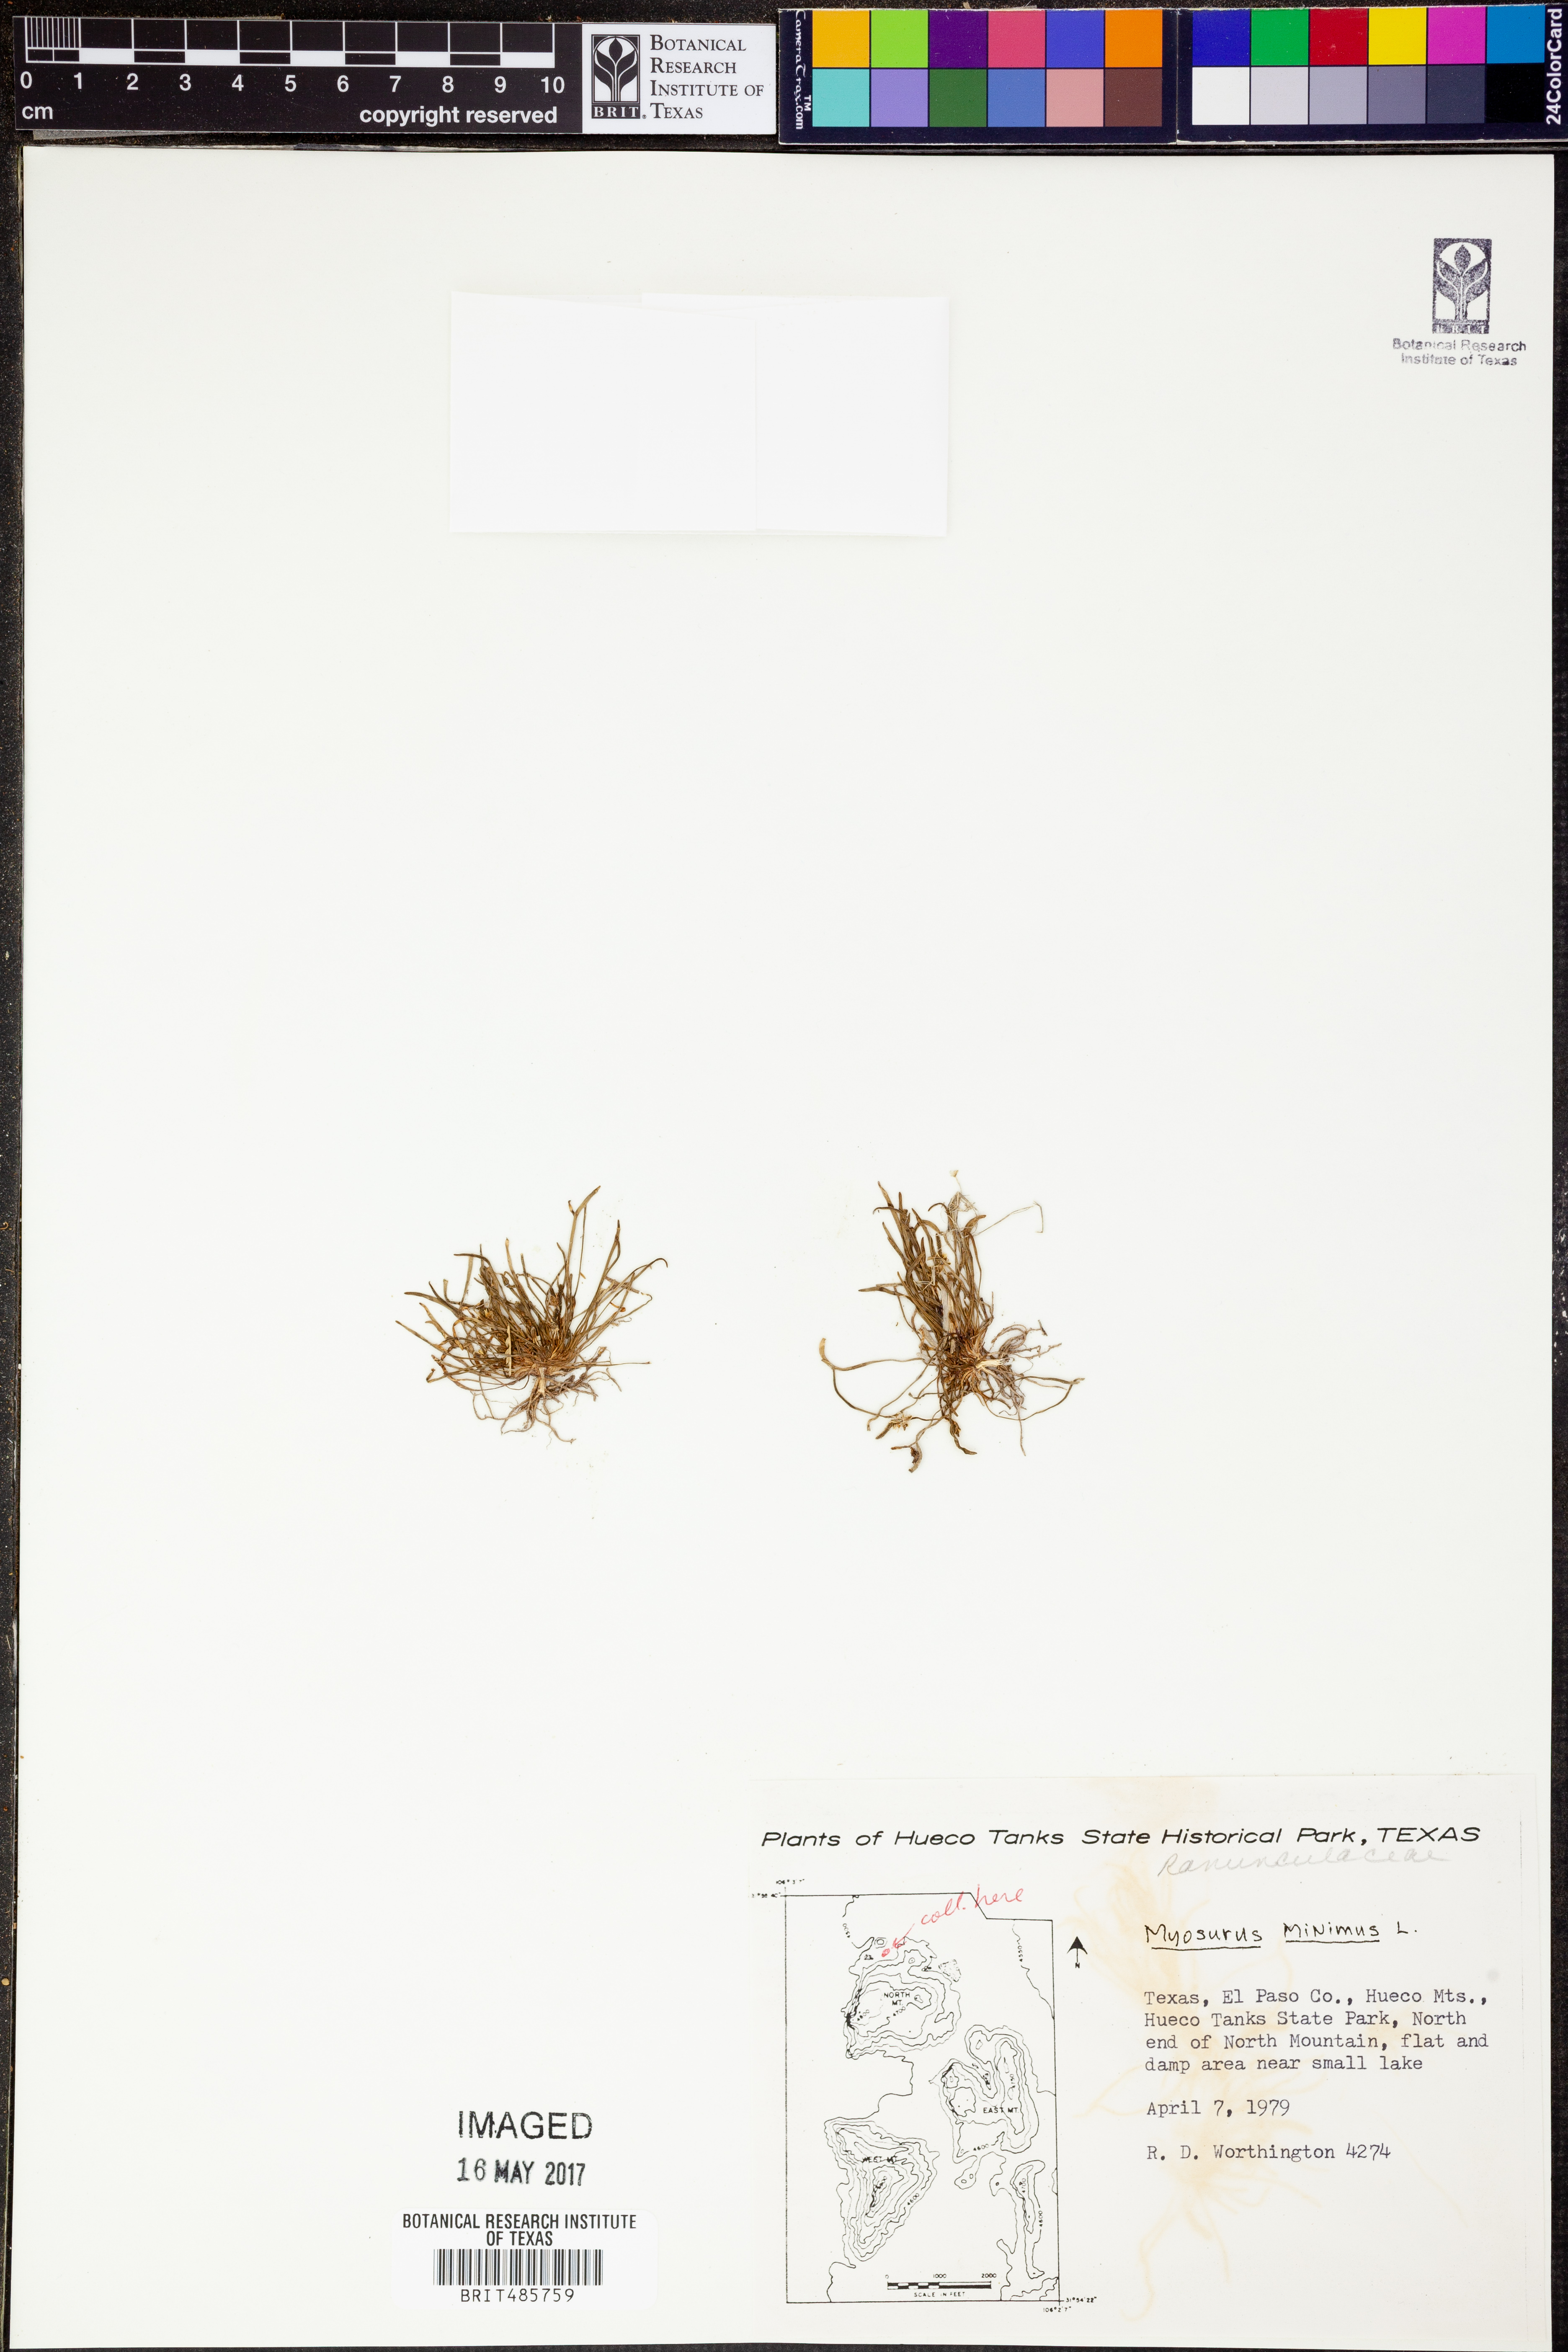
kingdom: Plantae
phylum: Tracheophyta
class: Magnoliopsida
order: Ranunculales
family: Ranunculaceae
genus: Myosurus
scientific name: Myosurus minimus
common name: Mousetail
